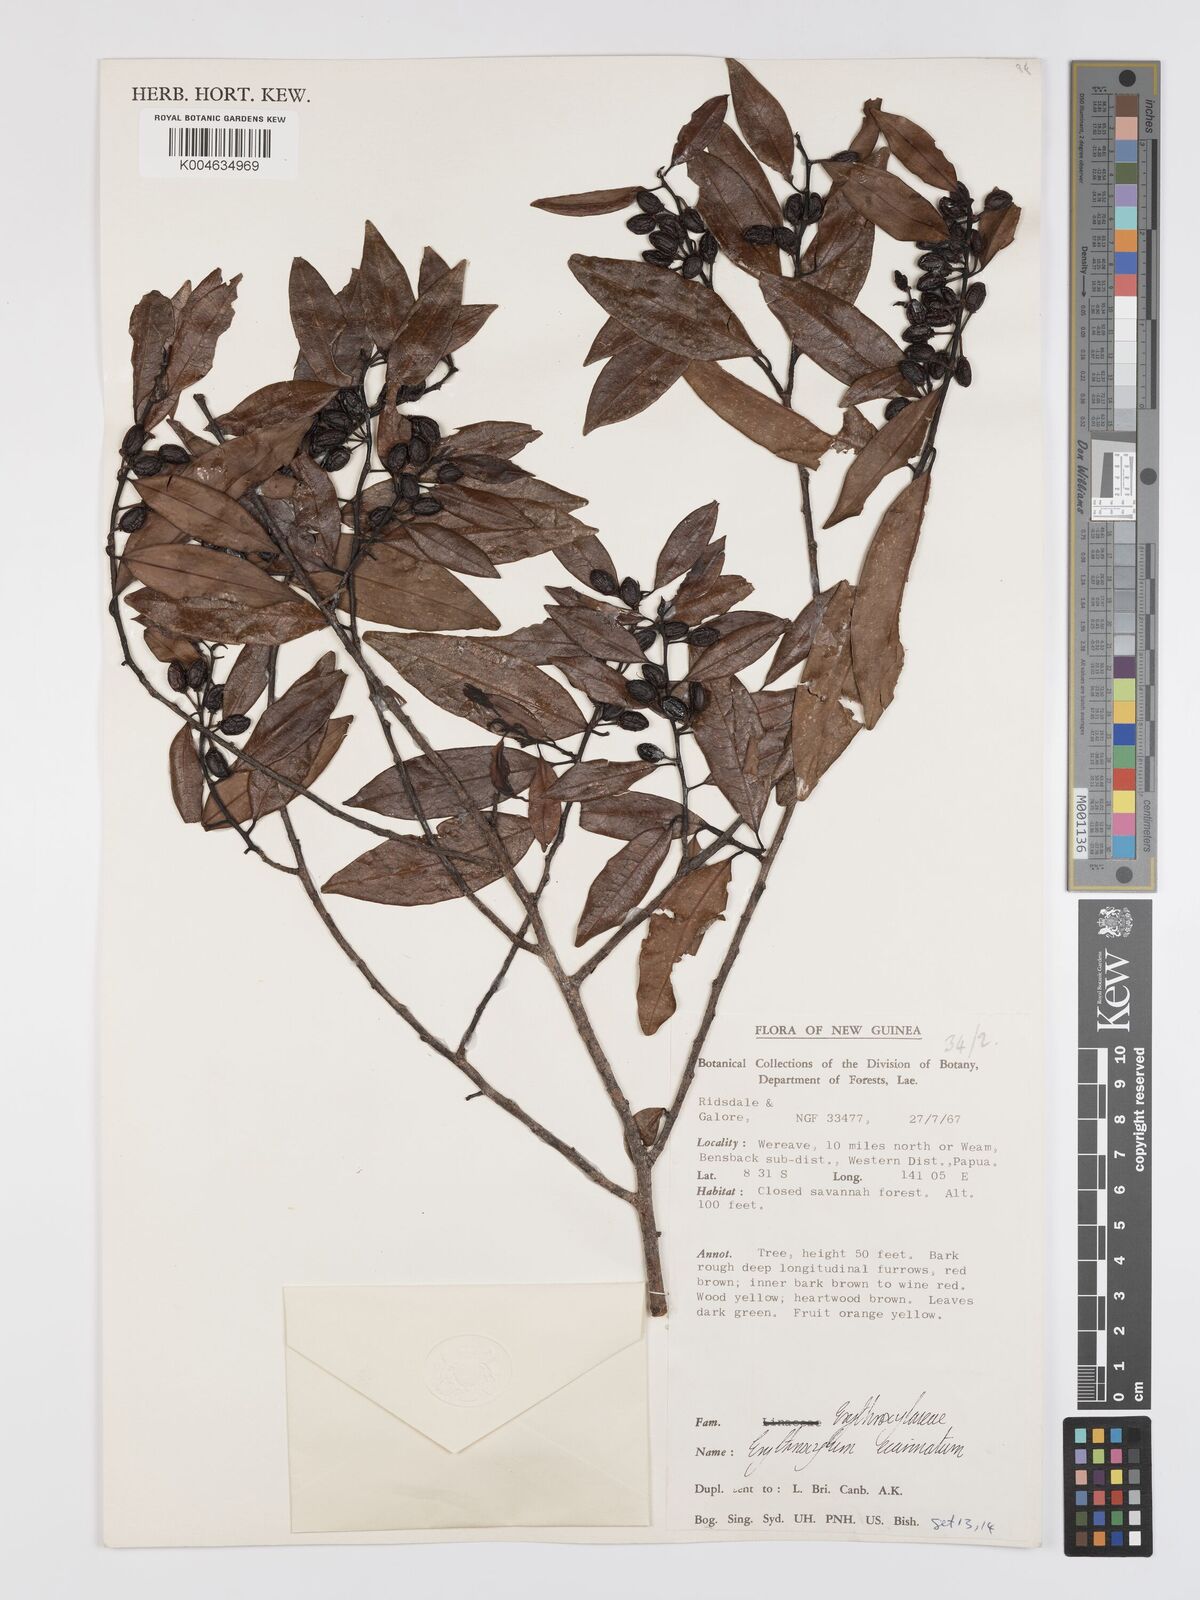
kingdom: Plantae
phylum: Tracheophyta
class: Magnoliopsida
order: Malpighiales
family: Erythroxylaceae
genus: Erythroxylum
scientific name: Erythroxylum ecarinatum
